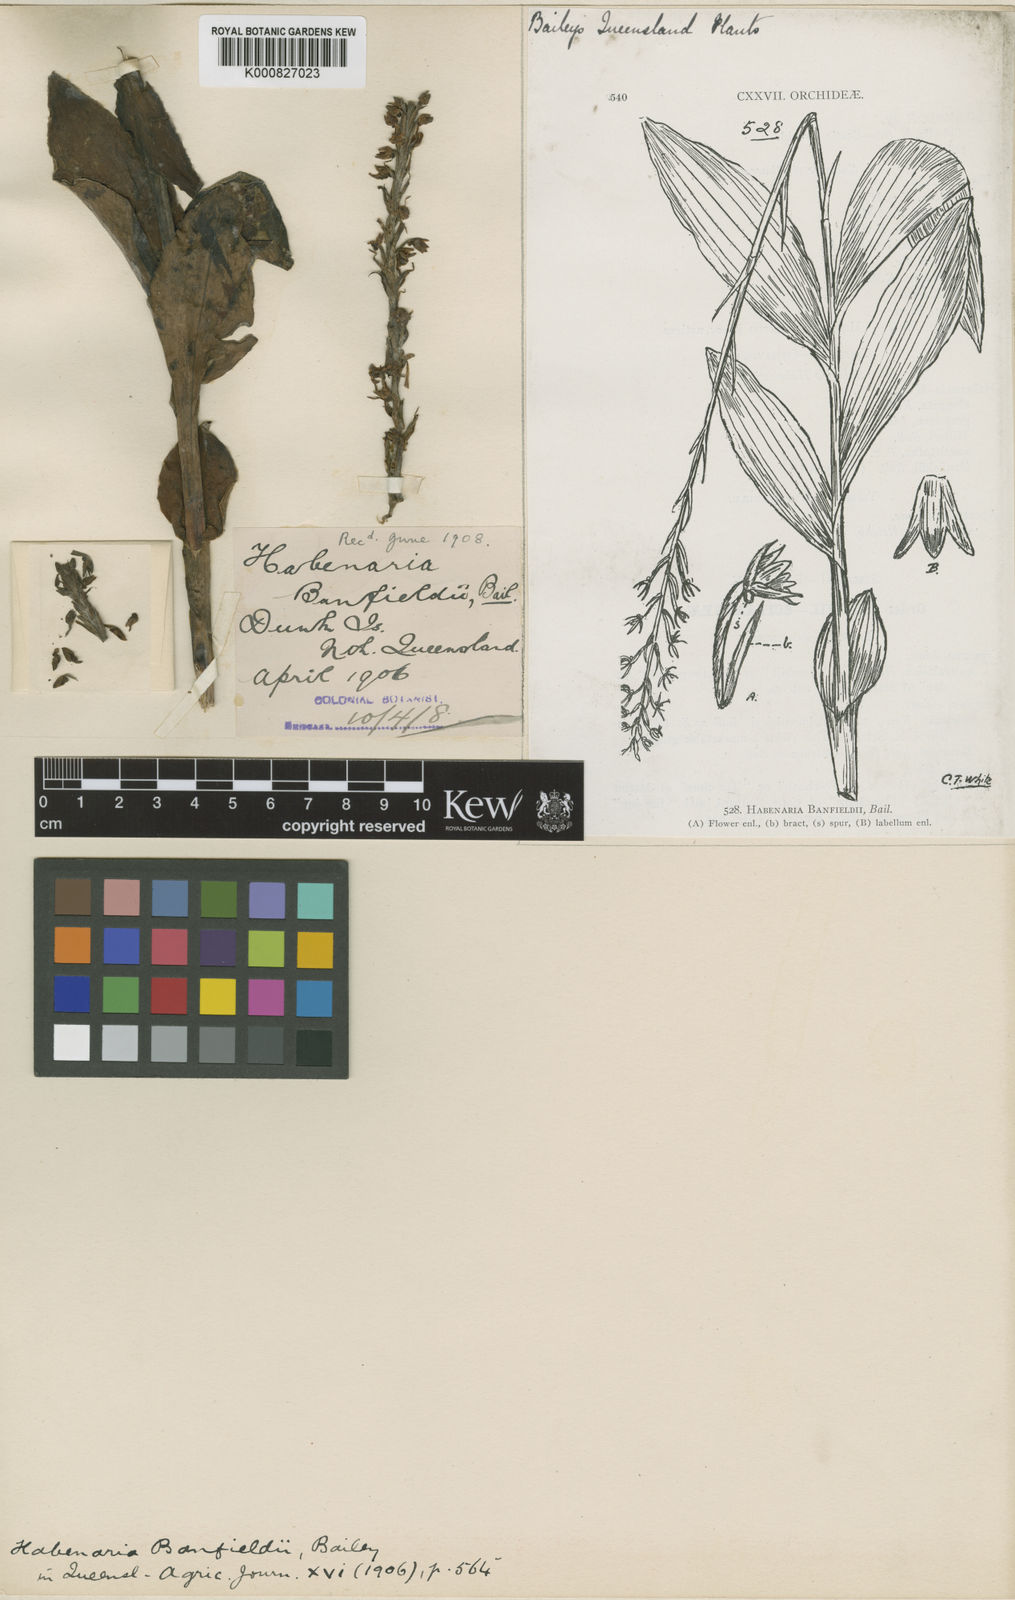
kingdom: Plantae
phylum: Tracheophyta
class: Liliopsida
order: Asparagales
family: Orchidaceae
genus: Peristylus
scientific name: Peristylus banfieldii
